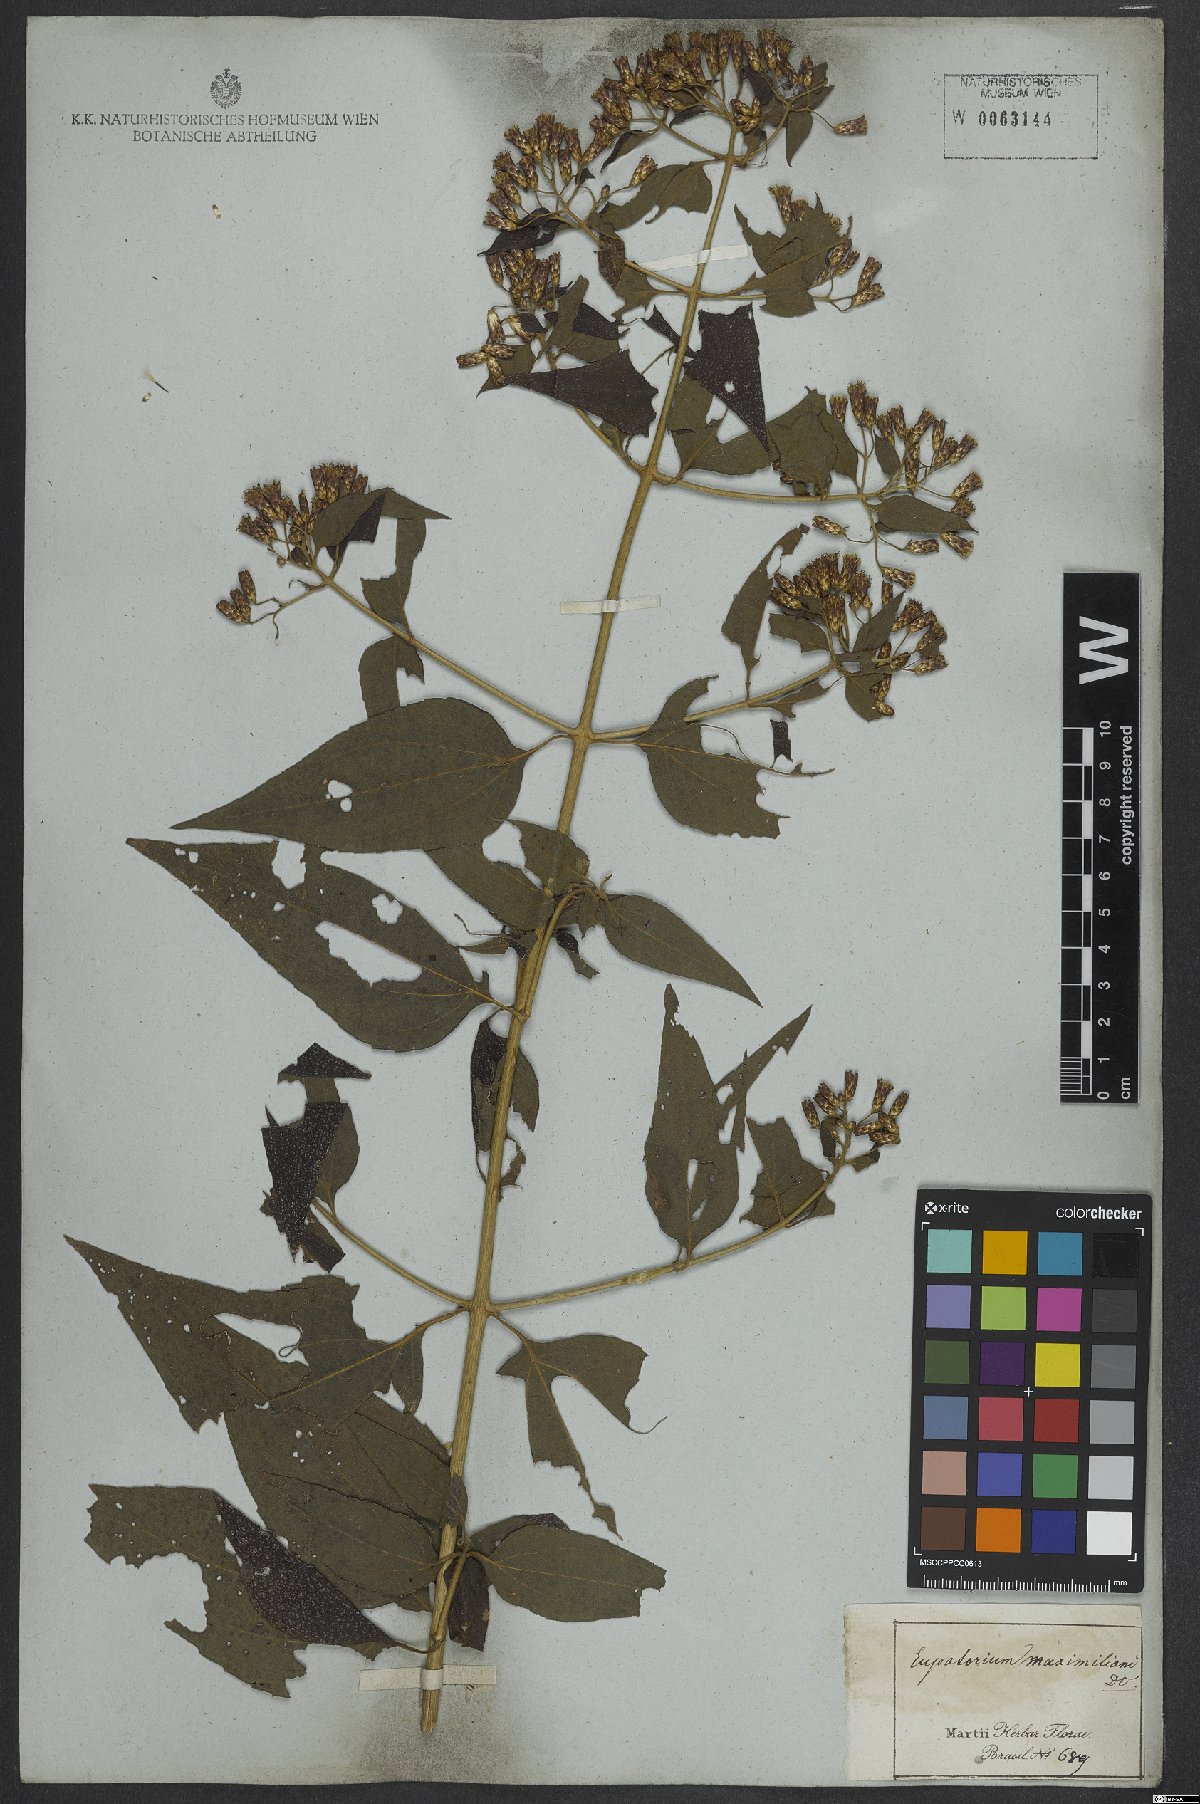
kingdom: Plantae
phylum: Tracheophyta
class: Magnoliopsida
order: Asterales
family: Asteraceae
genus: Chromolaena
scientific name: Chromolaena odorata
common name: Siamweed
